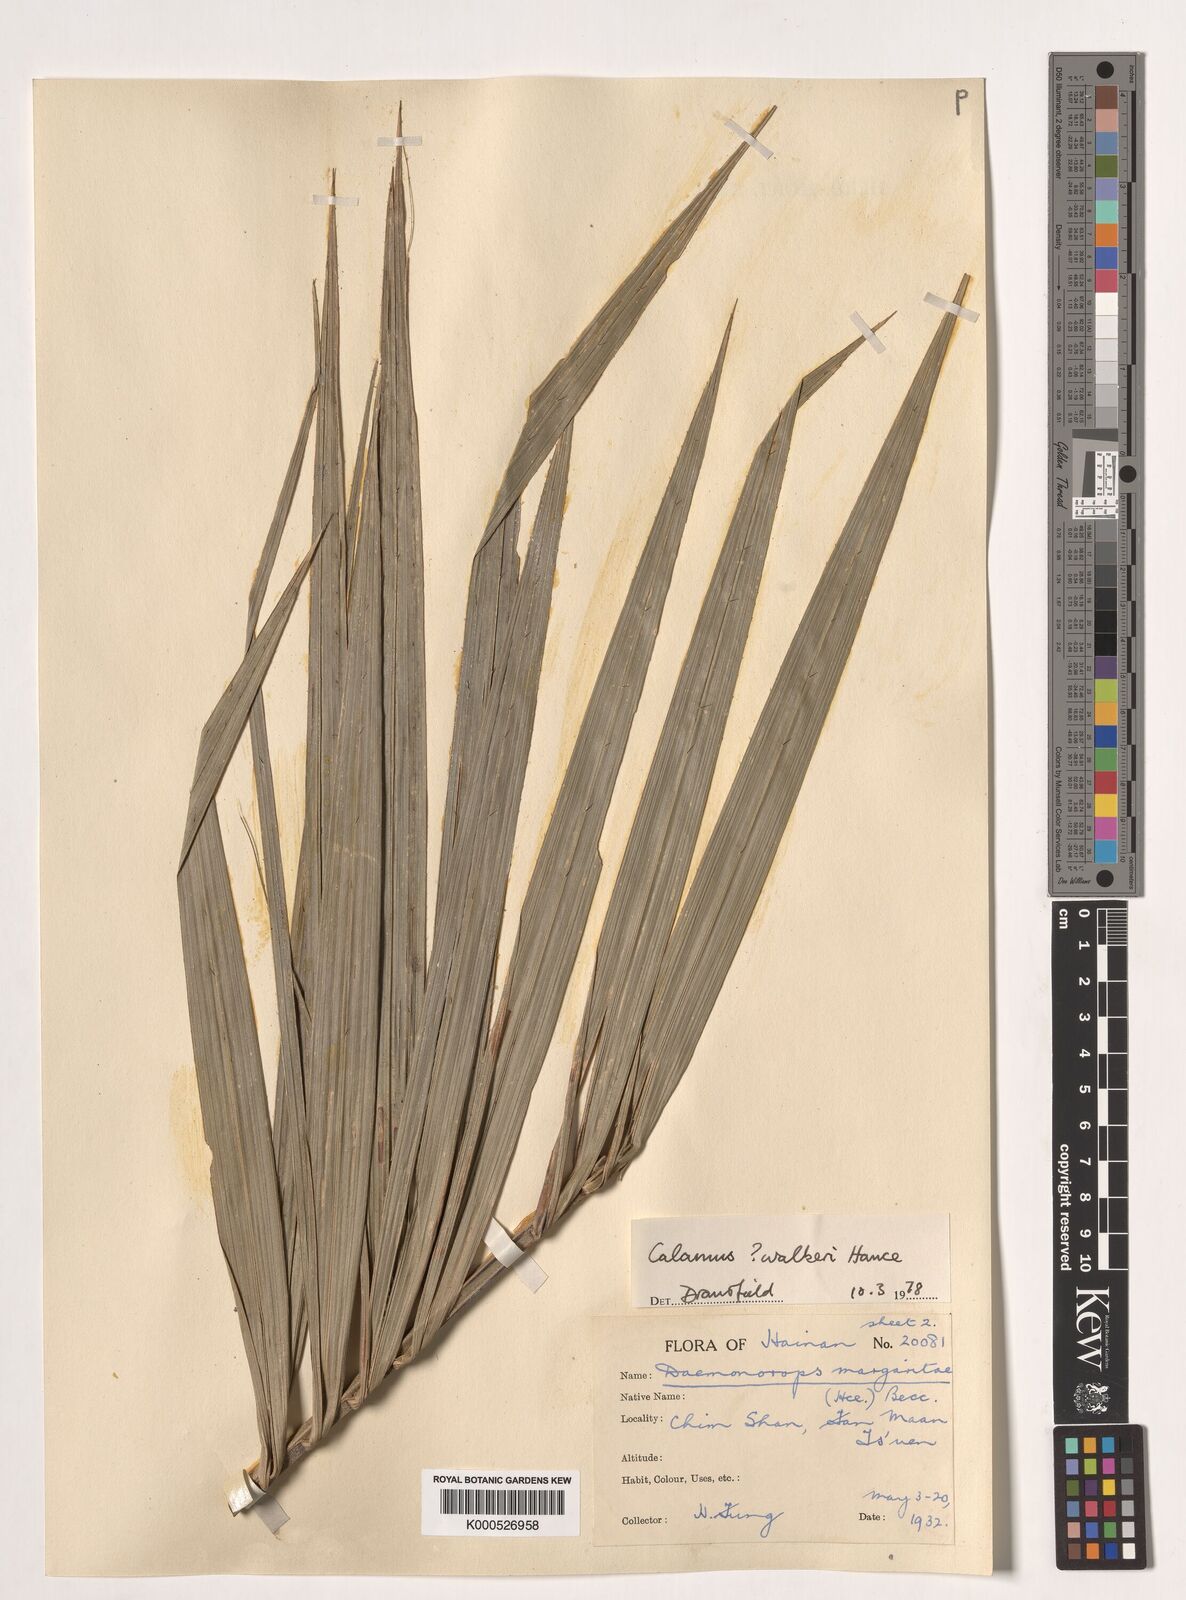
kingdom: Plantae
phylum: Tracheophyta
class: Liliopsida
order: Arecales
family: Arecaceae
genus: Calamus
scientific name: Calamus rhabdocladus
